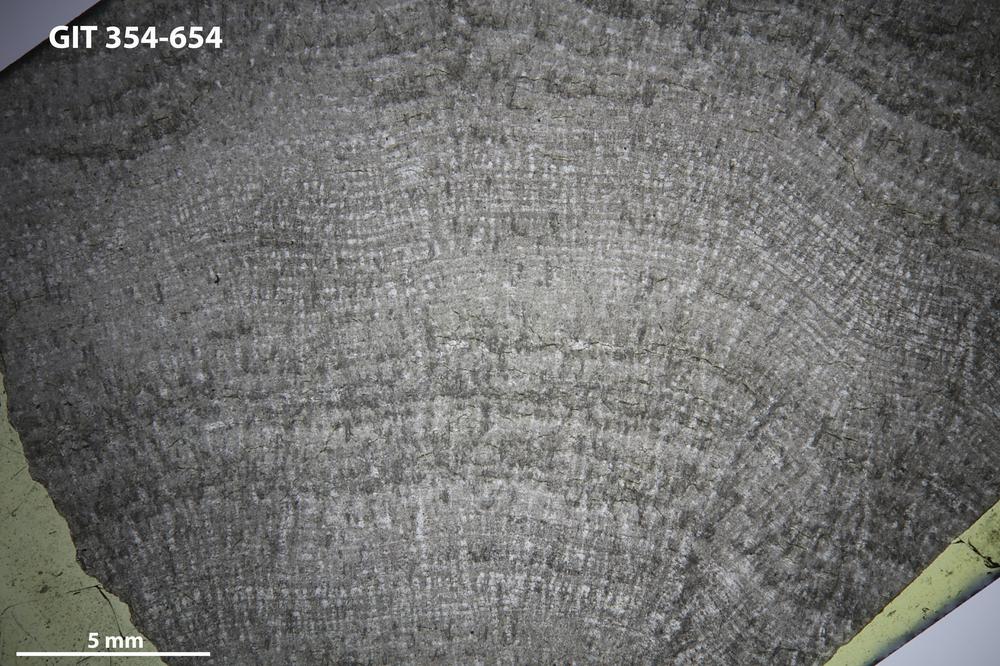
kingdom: Animalia
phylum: Porifera
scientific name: Porifera
